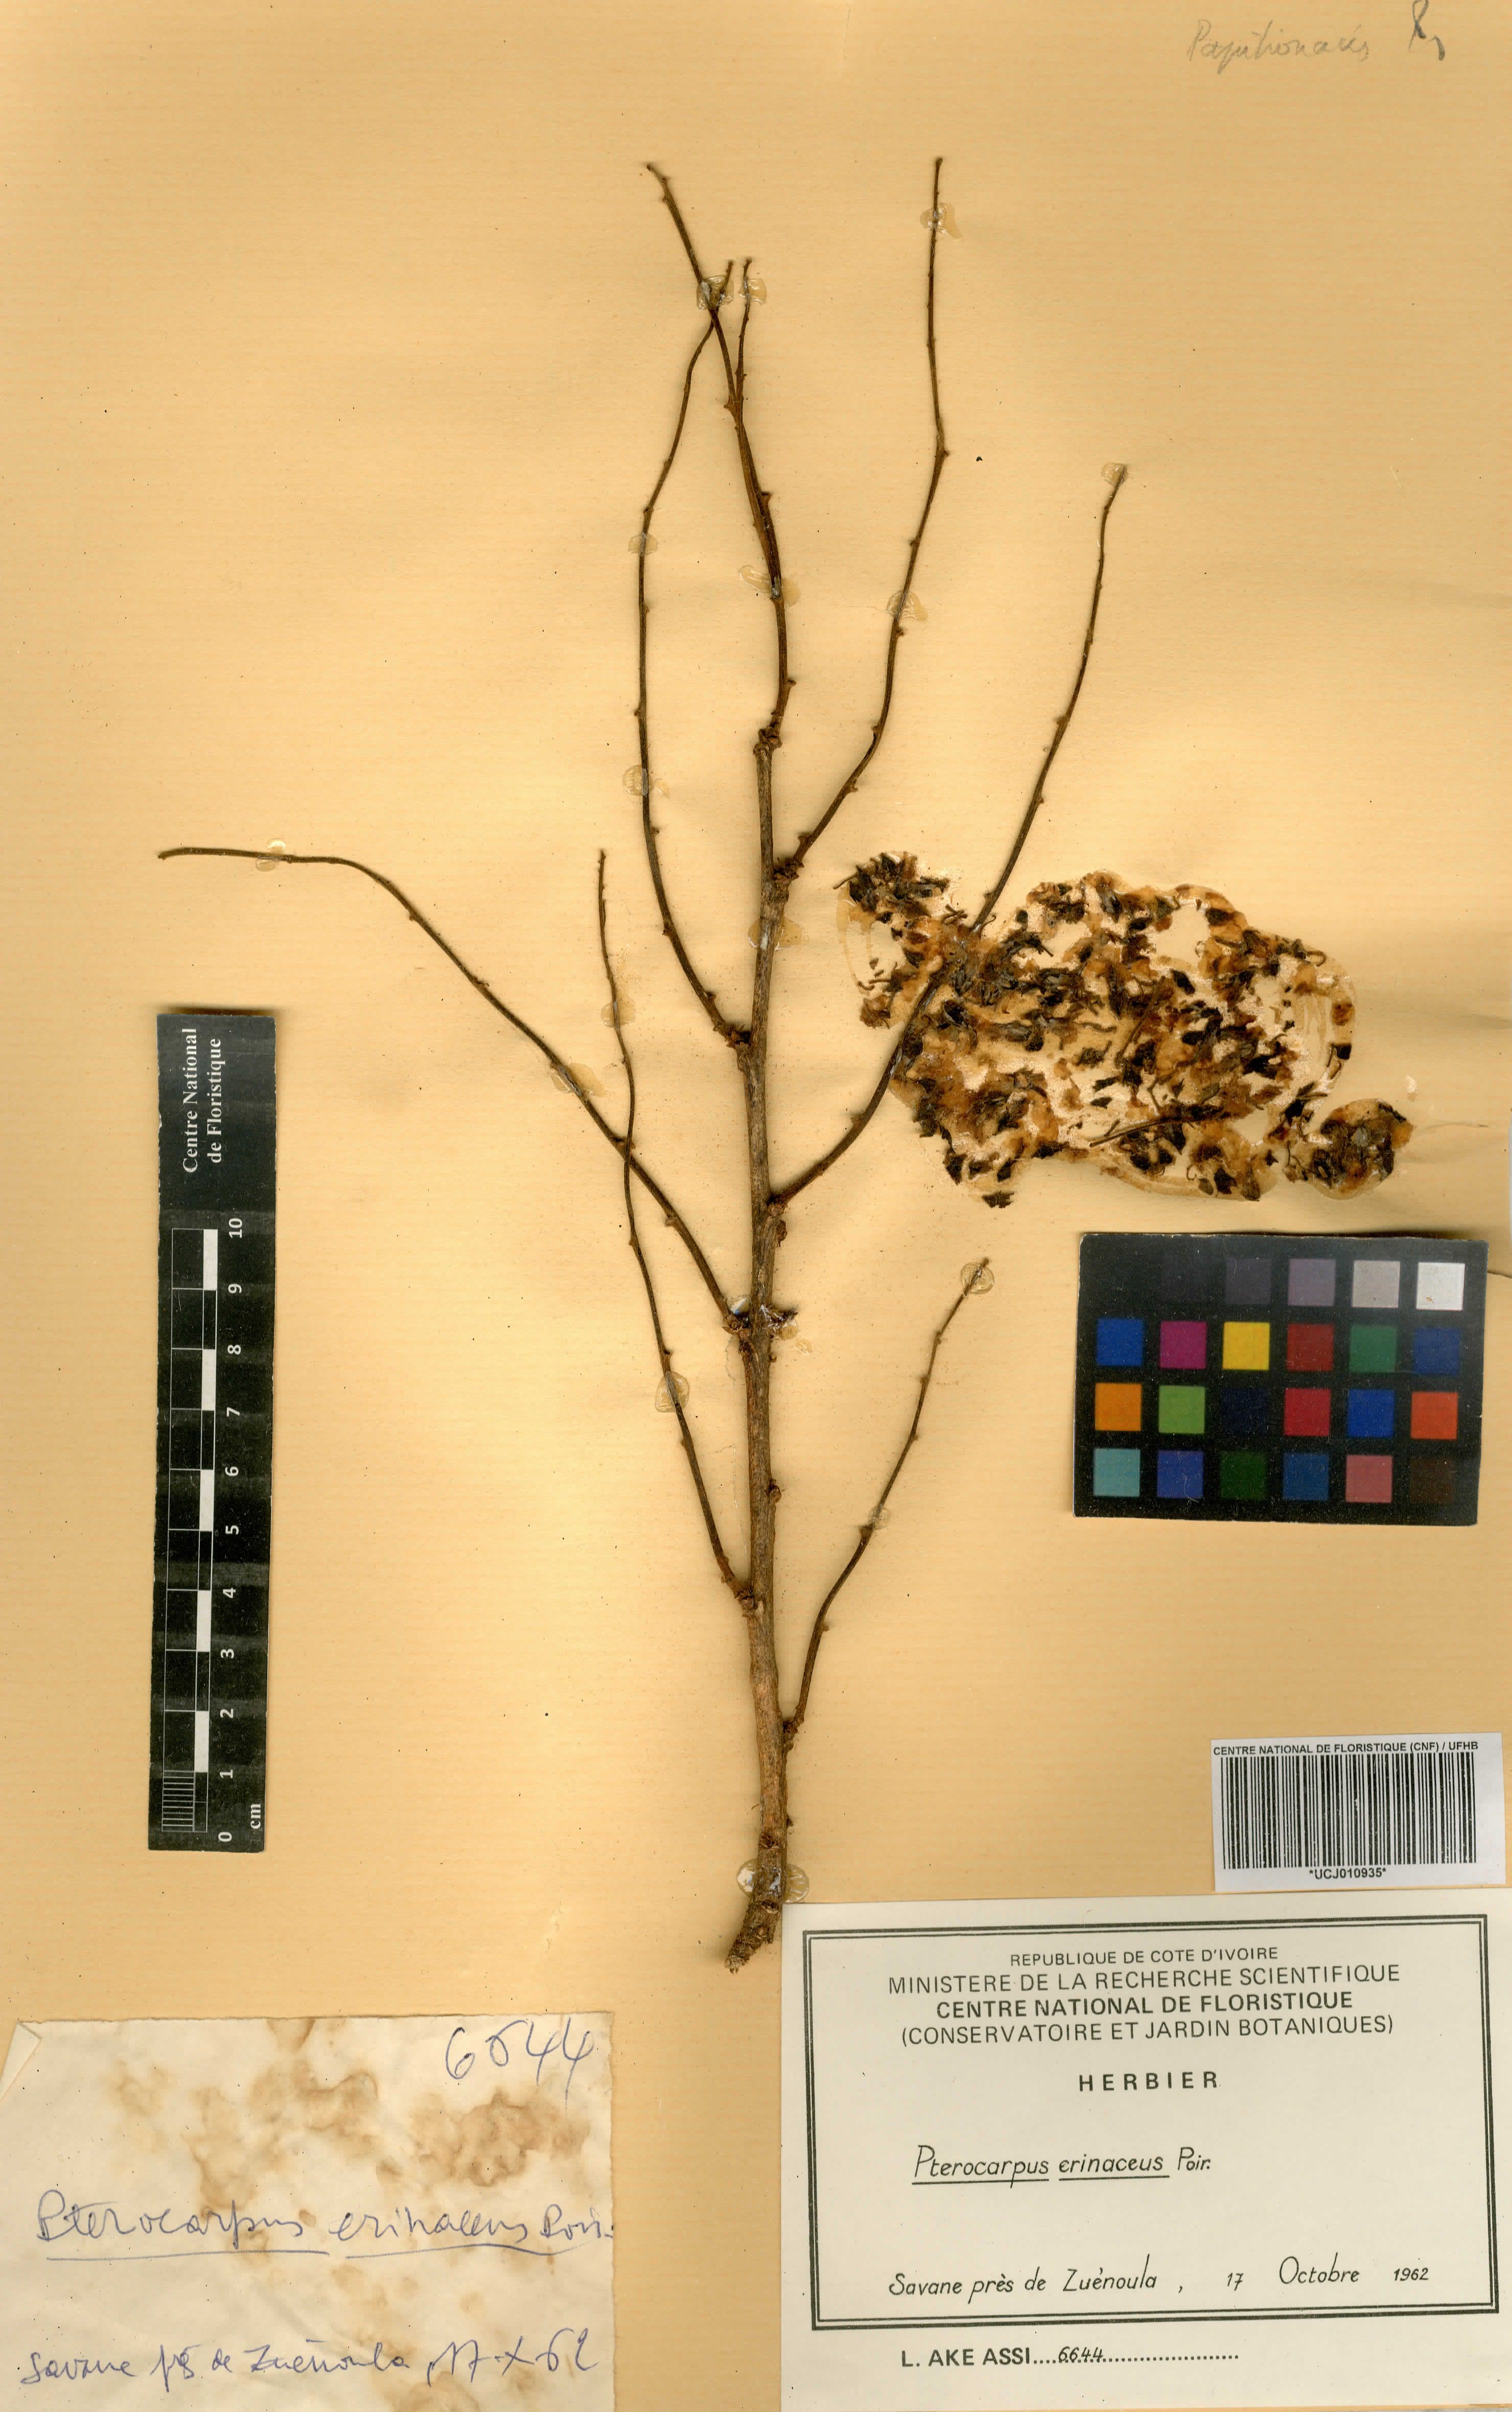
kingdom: Plantae
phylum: Tracheophyta
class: Magnoliopsida
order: Fabales
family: Fabaceae
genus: Pterocarpus
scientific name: Pterocarpus erinaceus
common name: African rosewood
